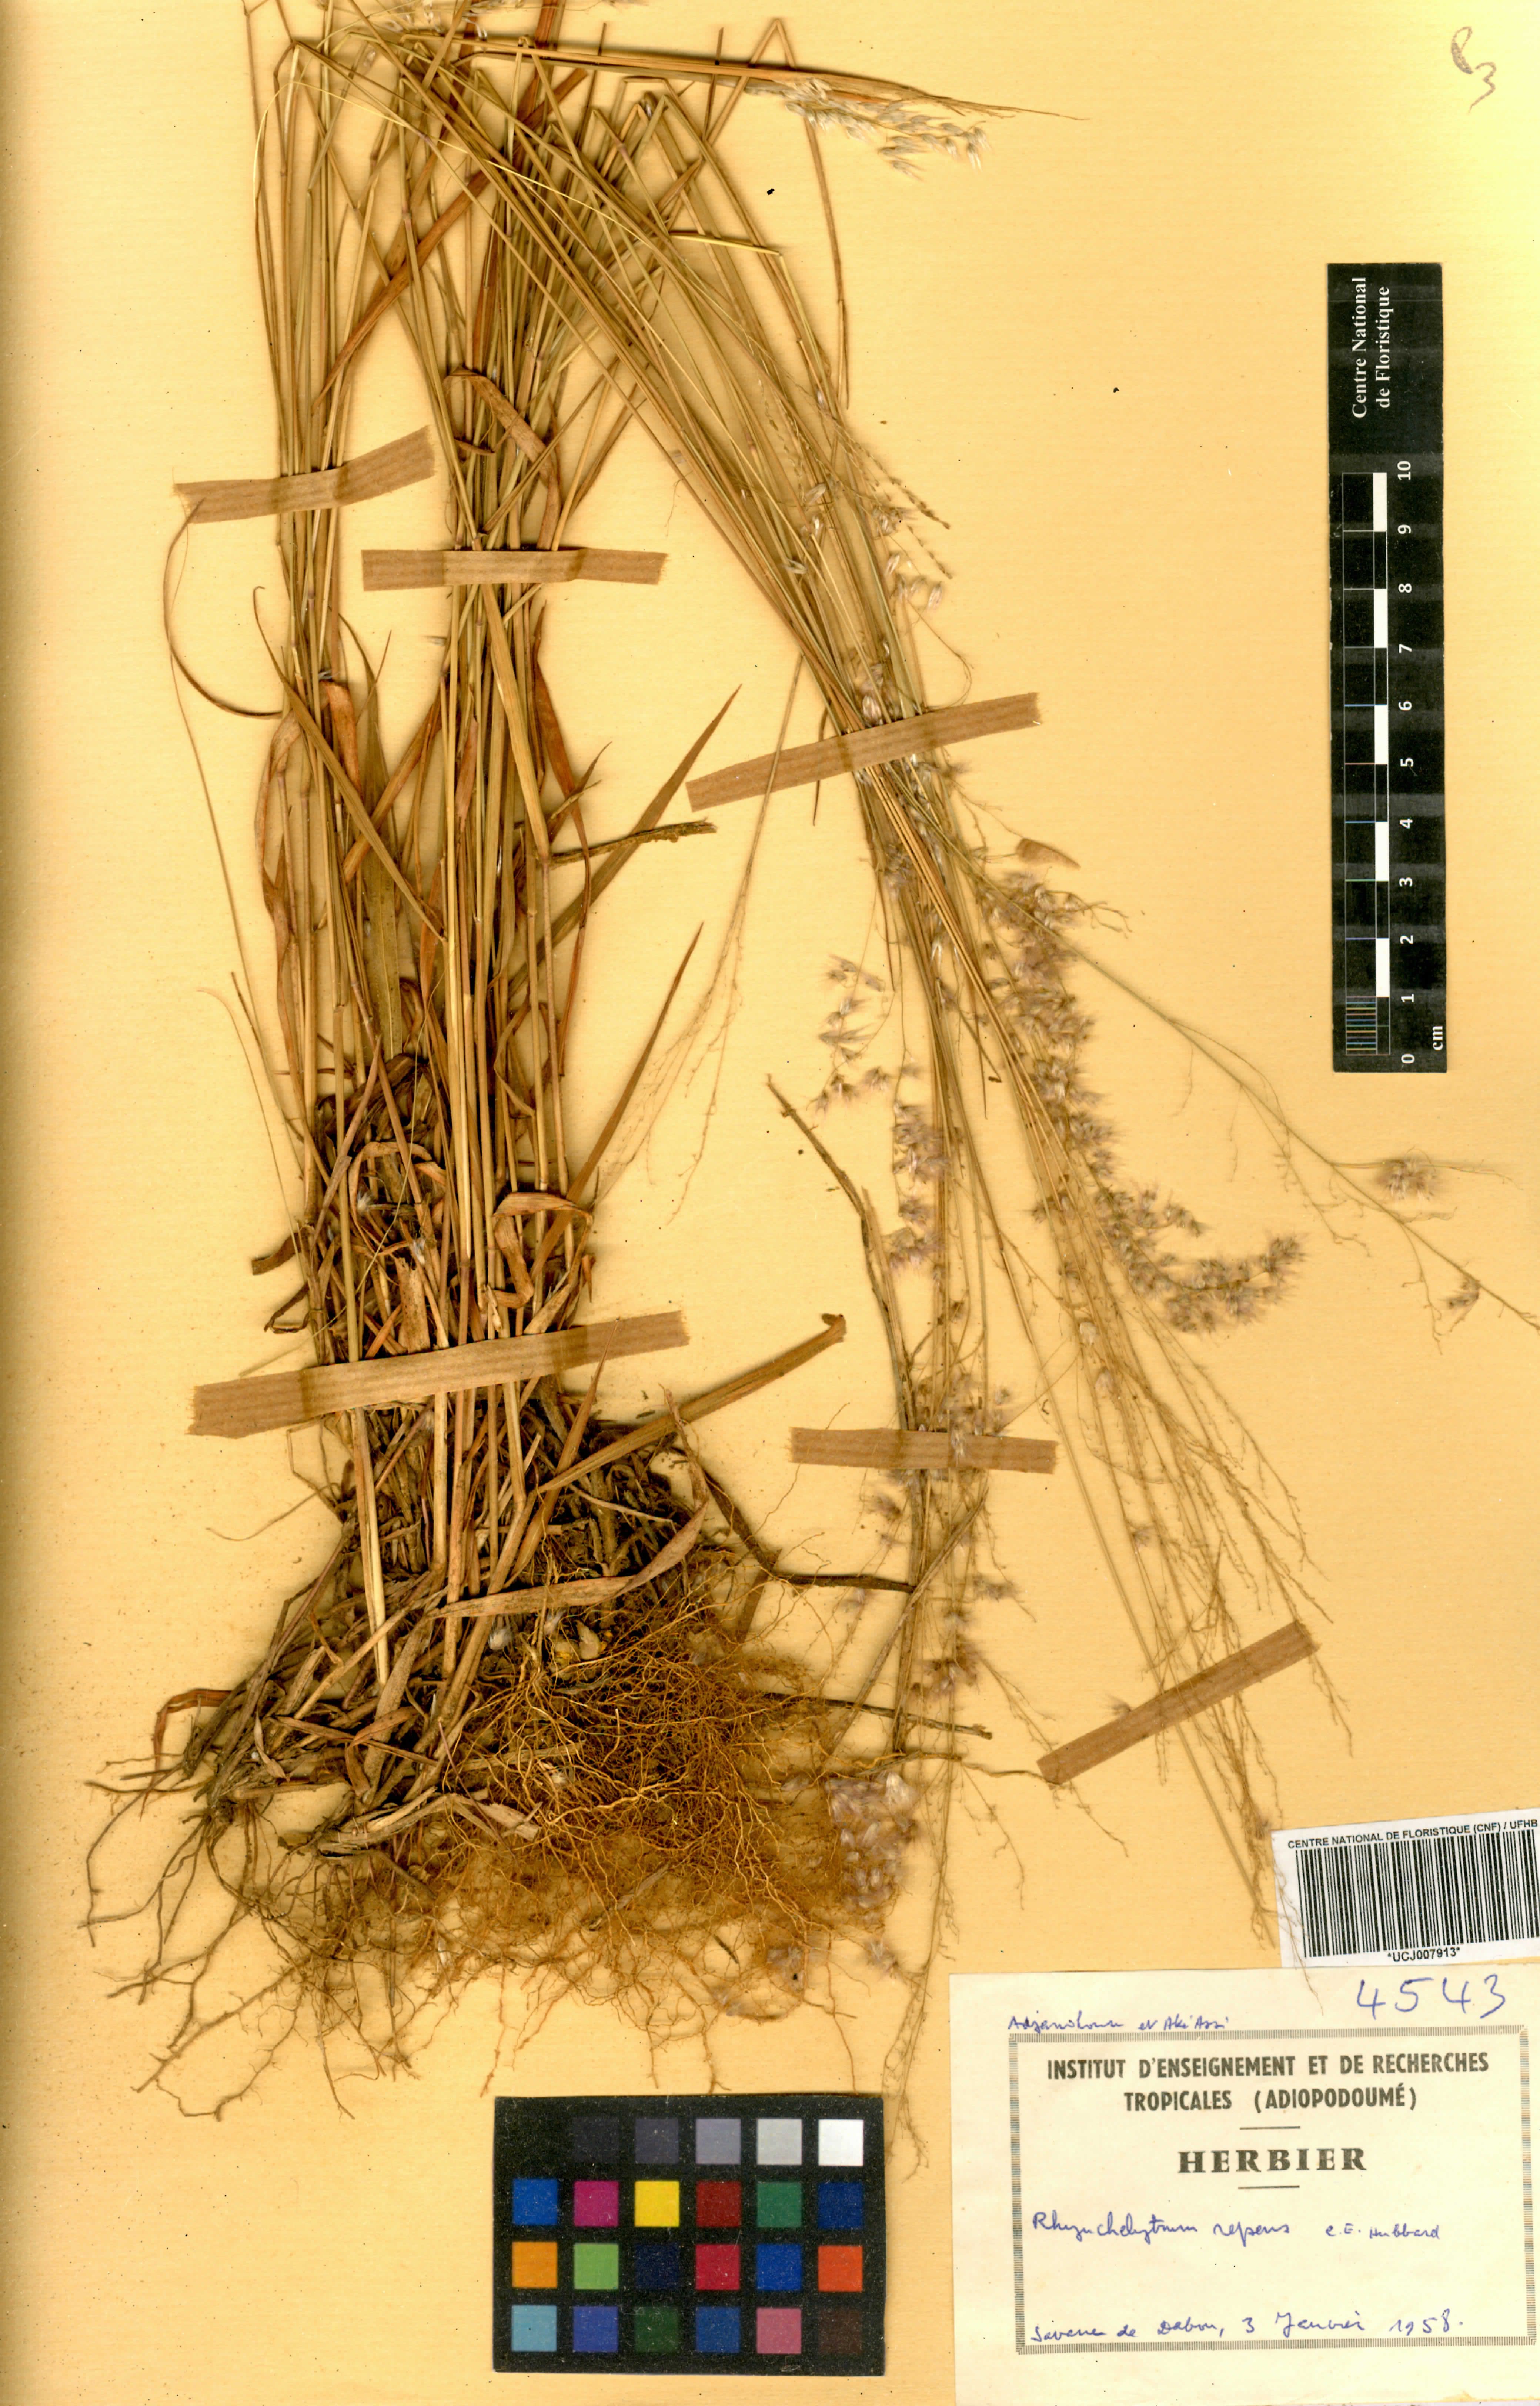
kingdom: Plantae
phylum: Tracheophyta
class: Liliopsida
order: Poales
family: Poaceae
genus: Melinis
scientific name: Melinis repens
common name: Rose natal grass
